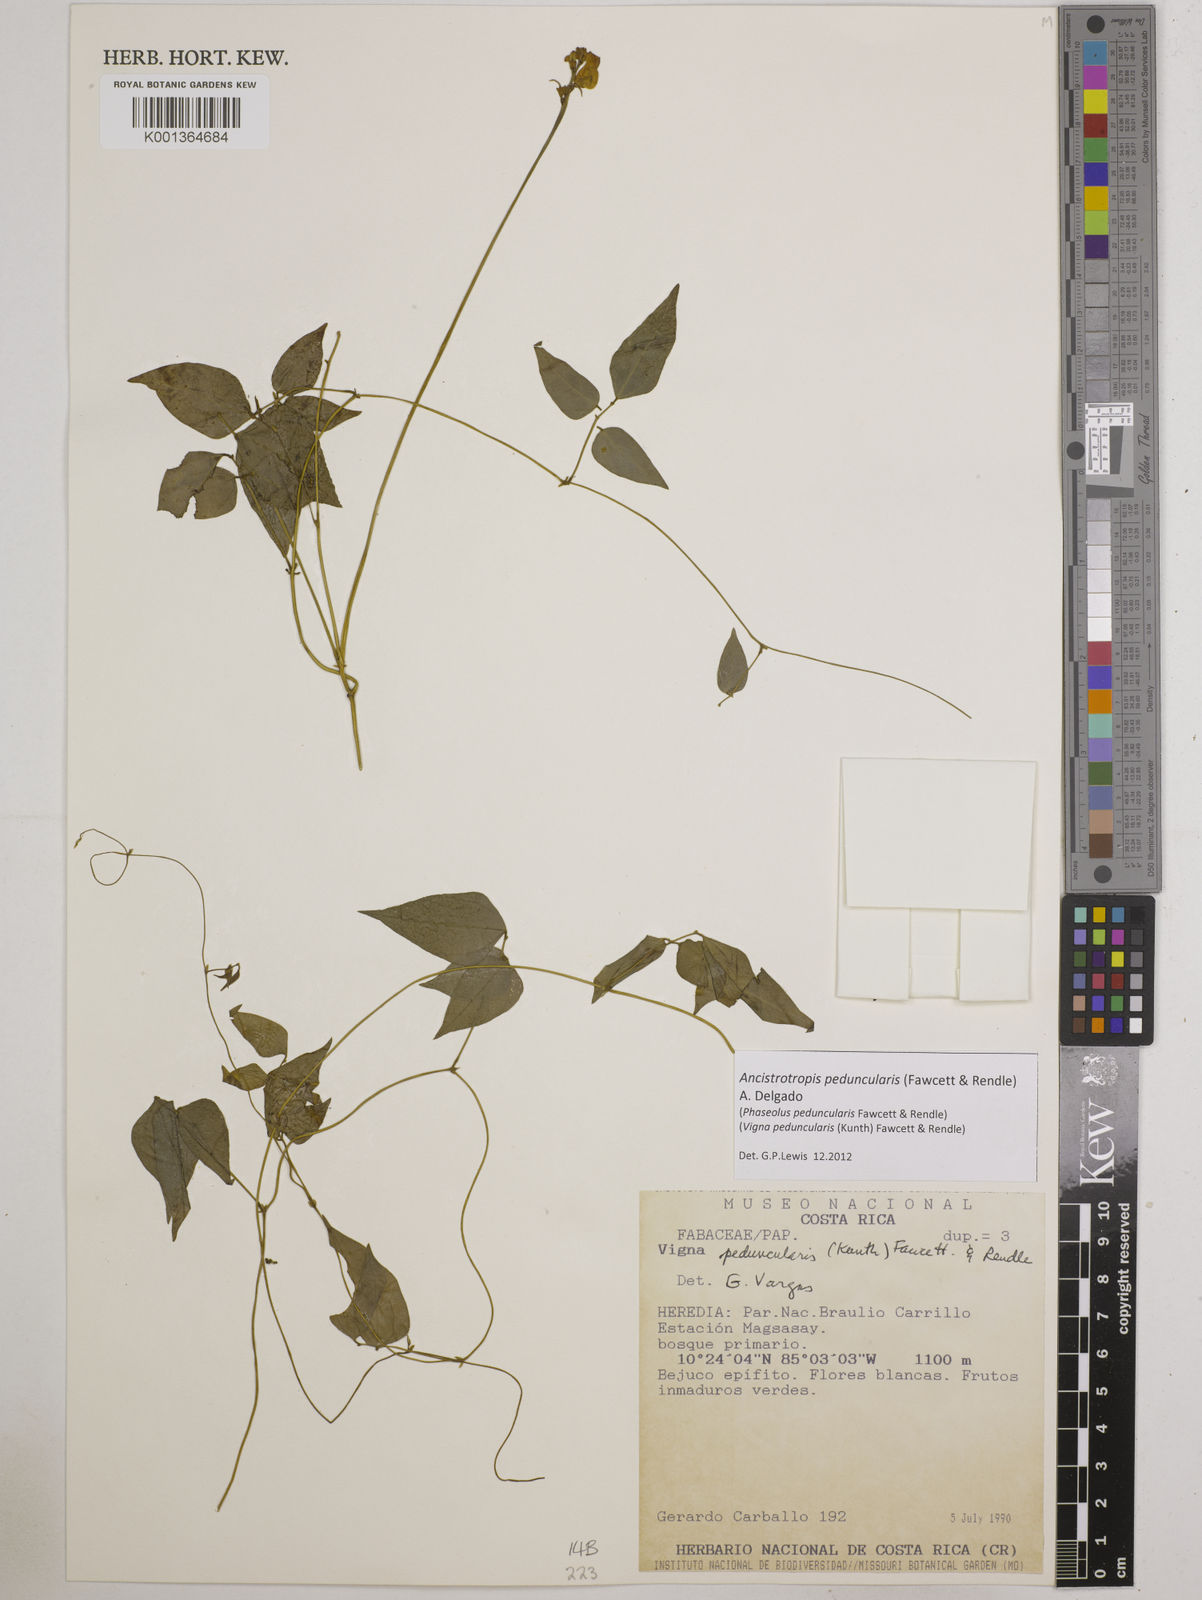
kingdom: Plantae
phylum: Tracheophyta
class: Magnoliopsida
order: Fabales
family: Fabaceae
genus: Ancistrotropis
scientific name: Ancistrotropis peduncularis
